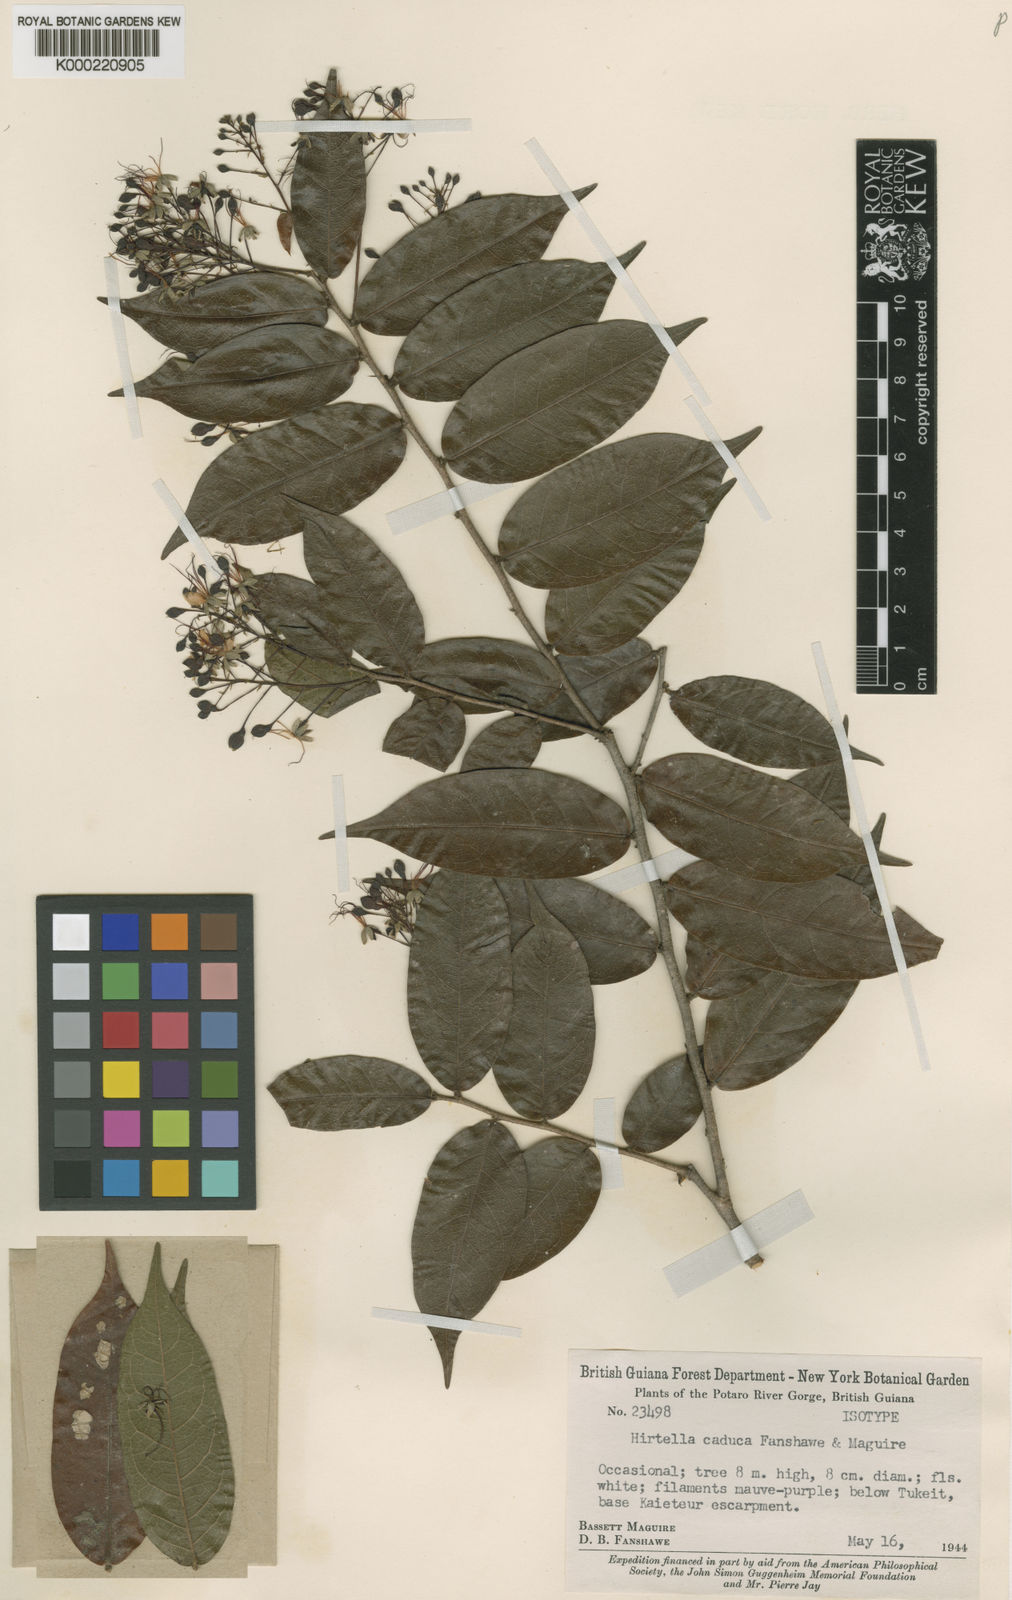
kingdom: Plantae
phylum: Tracheophyta
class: Magnoliopsida
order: Malpighiales
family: Chrysobalanaceae
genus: Hirtella
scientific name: Hirtella caduca
